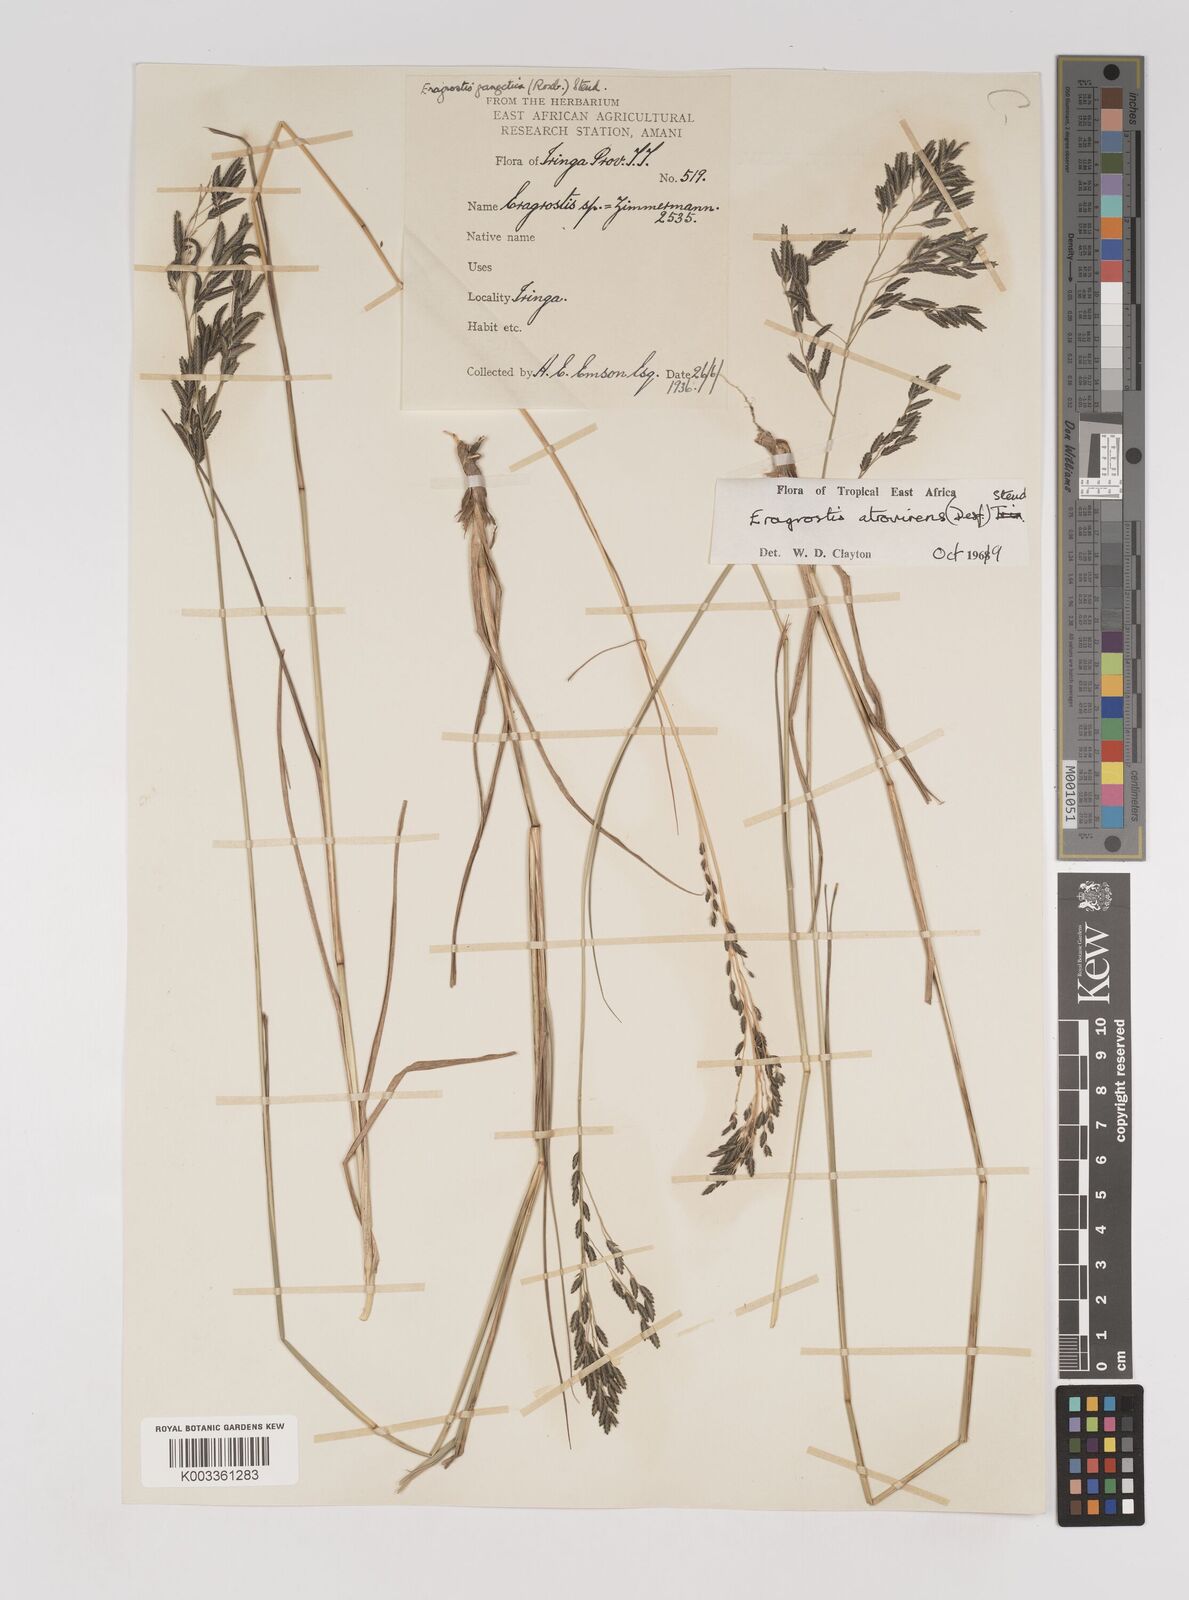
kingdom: Plantae
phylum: Tracheophyta
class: Liliopsida
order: Poales
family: Poaceae
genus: Eragrostis
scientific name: Eragrostis papposa
